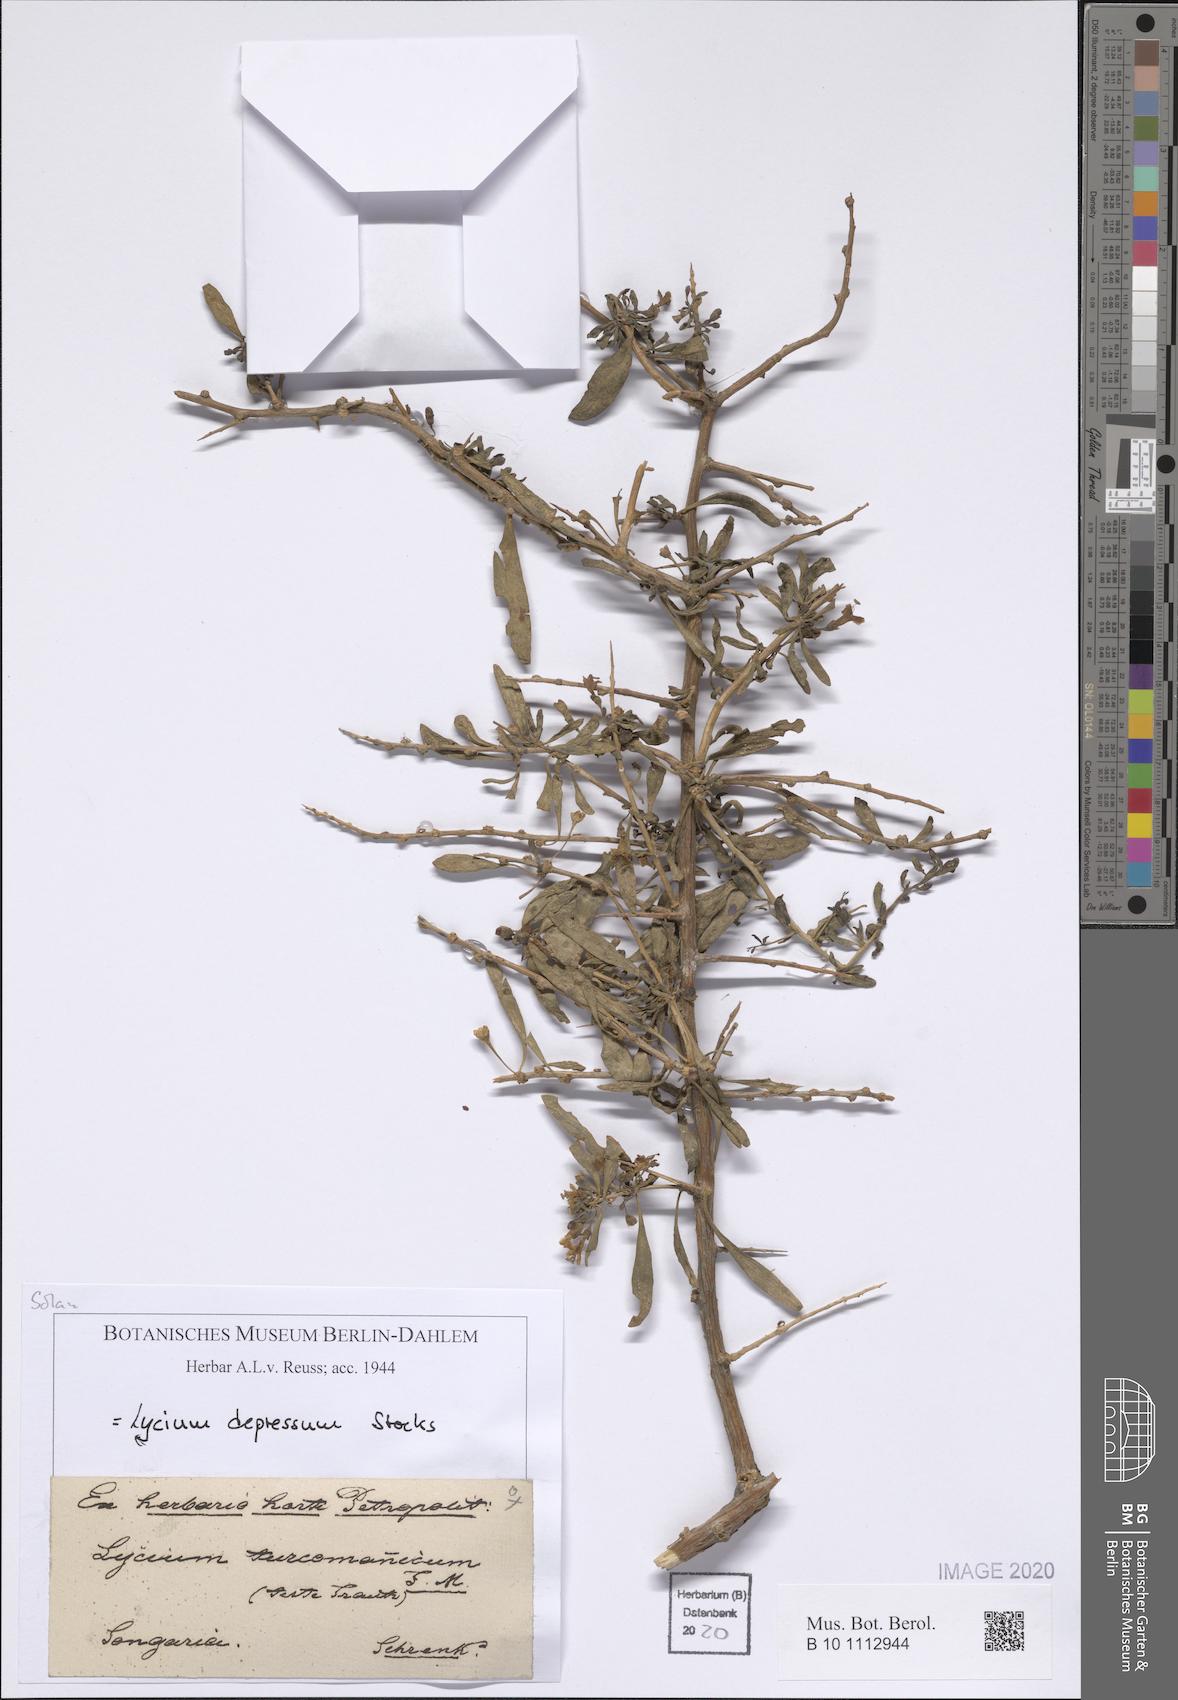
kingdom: Plantae
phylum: Tracheophyta
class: Magnoliopsida
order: Solanales
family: Solanaceae
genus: Lycium
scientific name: Lycium depressum
